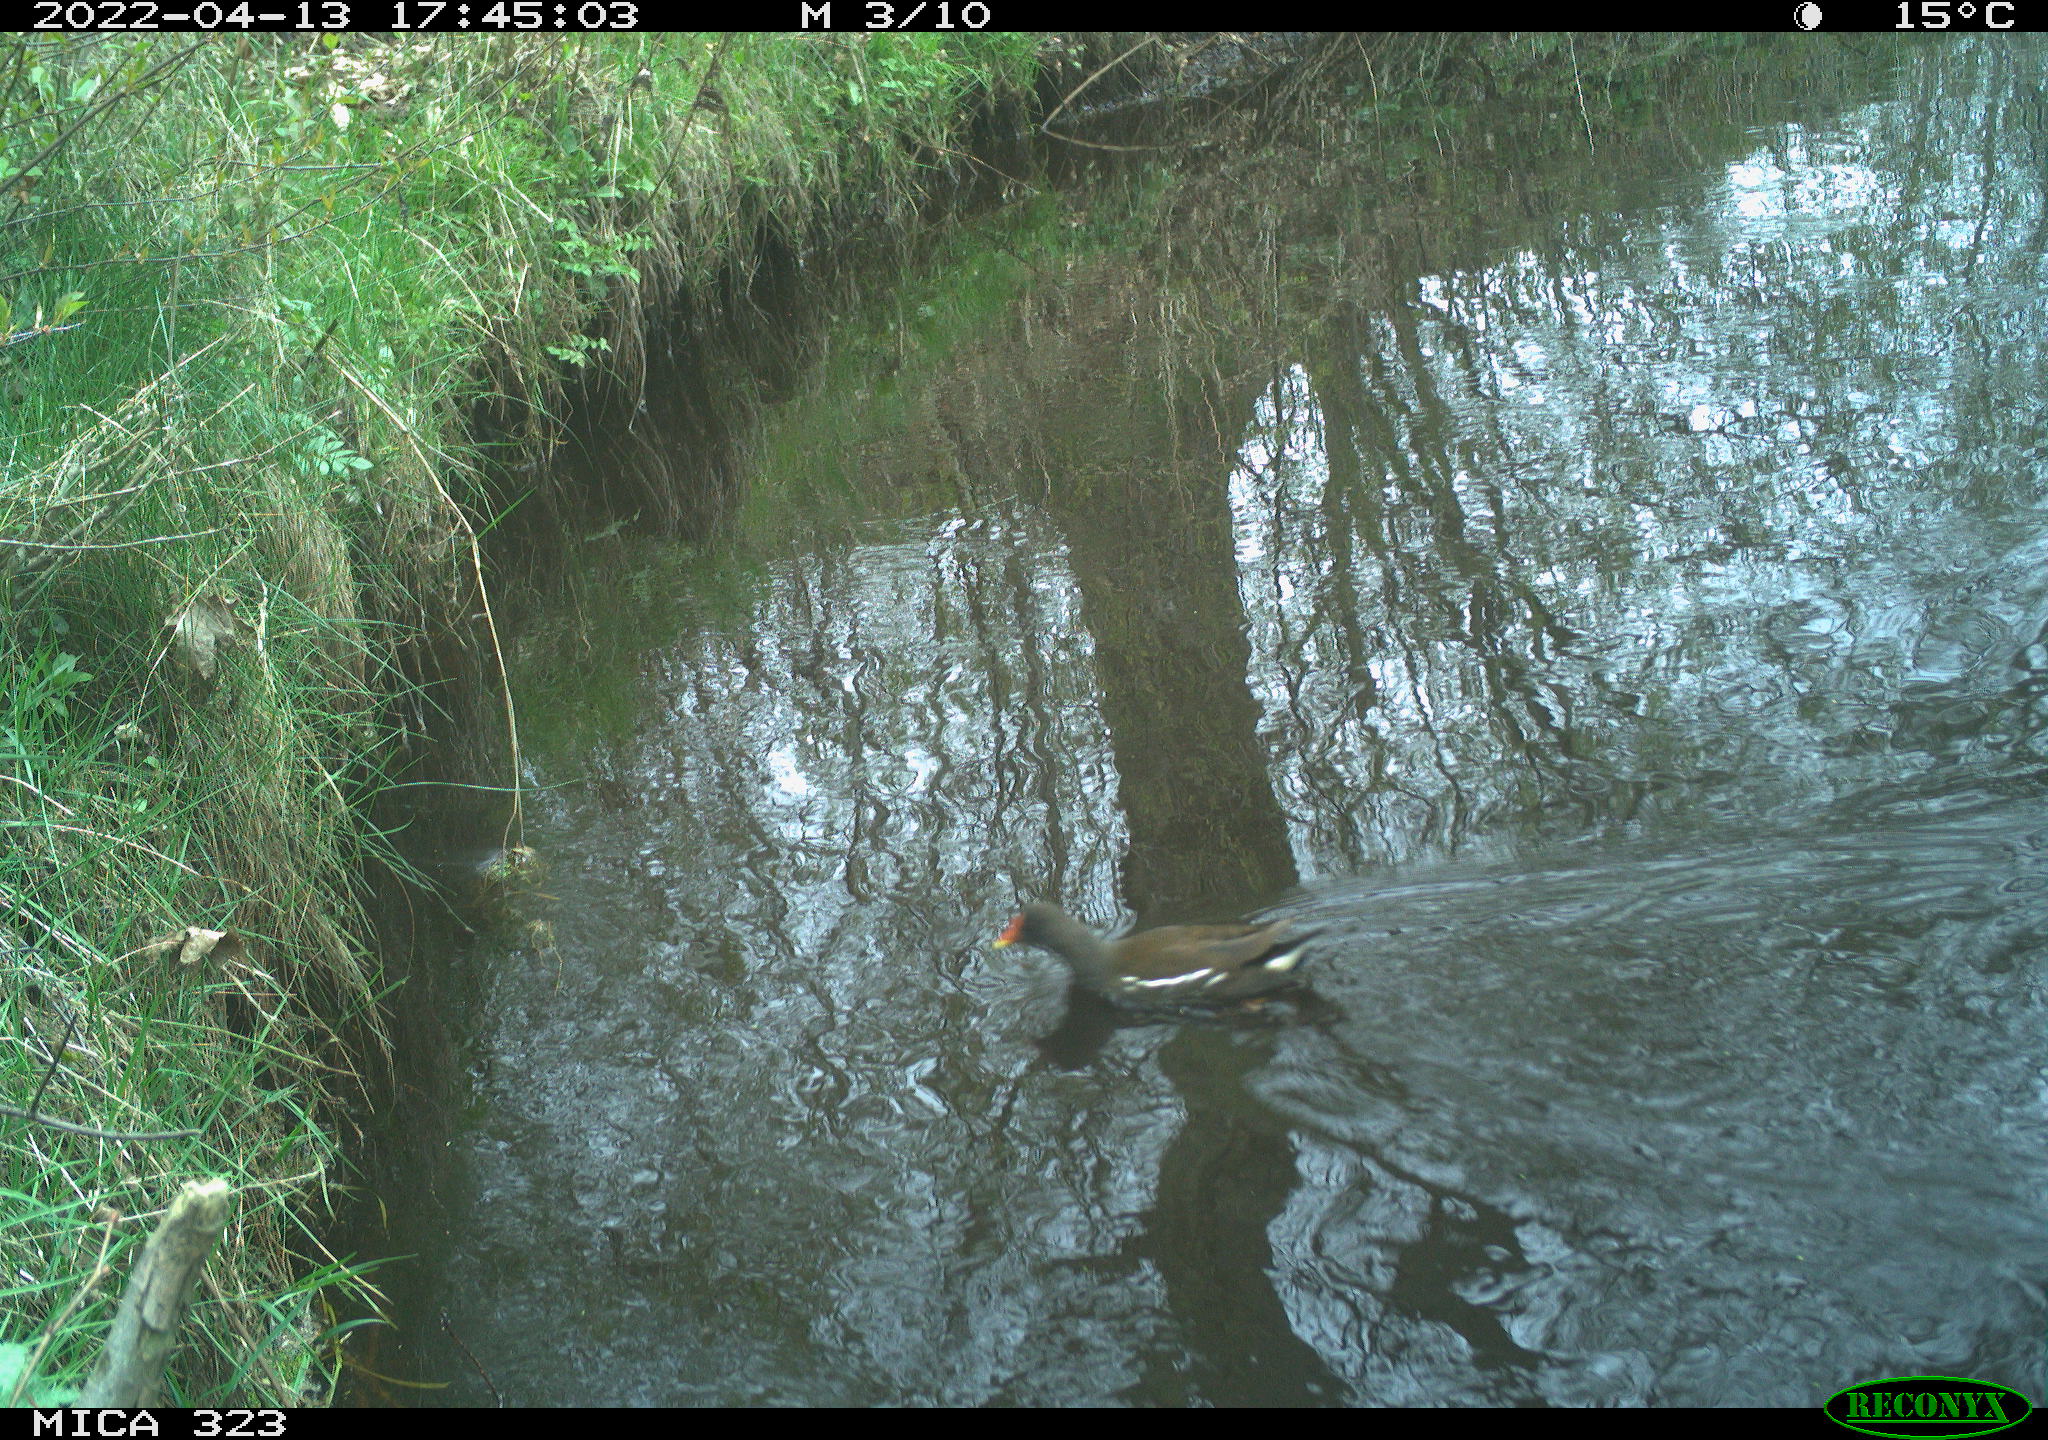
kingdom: Animalia
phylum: Chordata
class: Aves
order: Gruiformes
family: Rallidae
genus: Gallinula
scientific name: Gallinula chloropus
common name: Common moorhen
